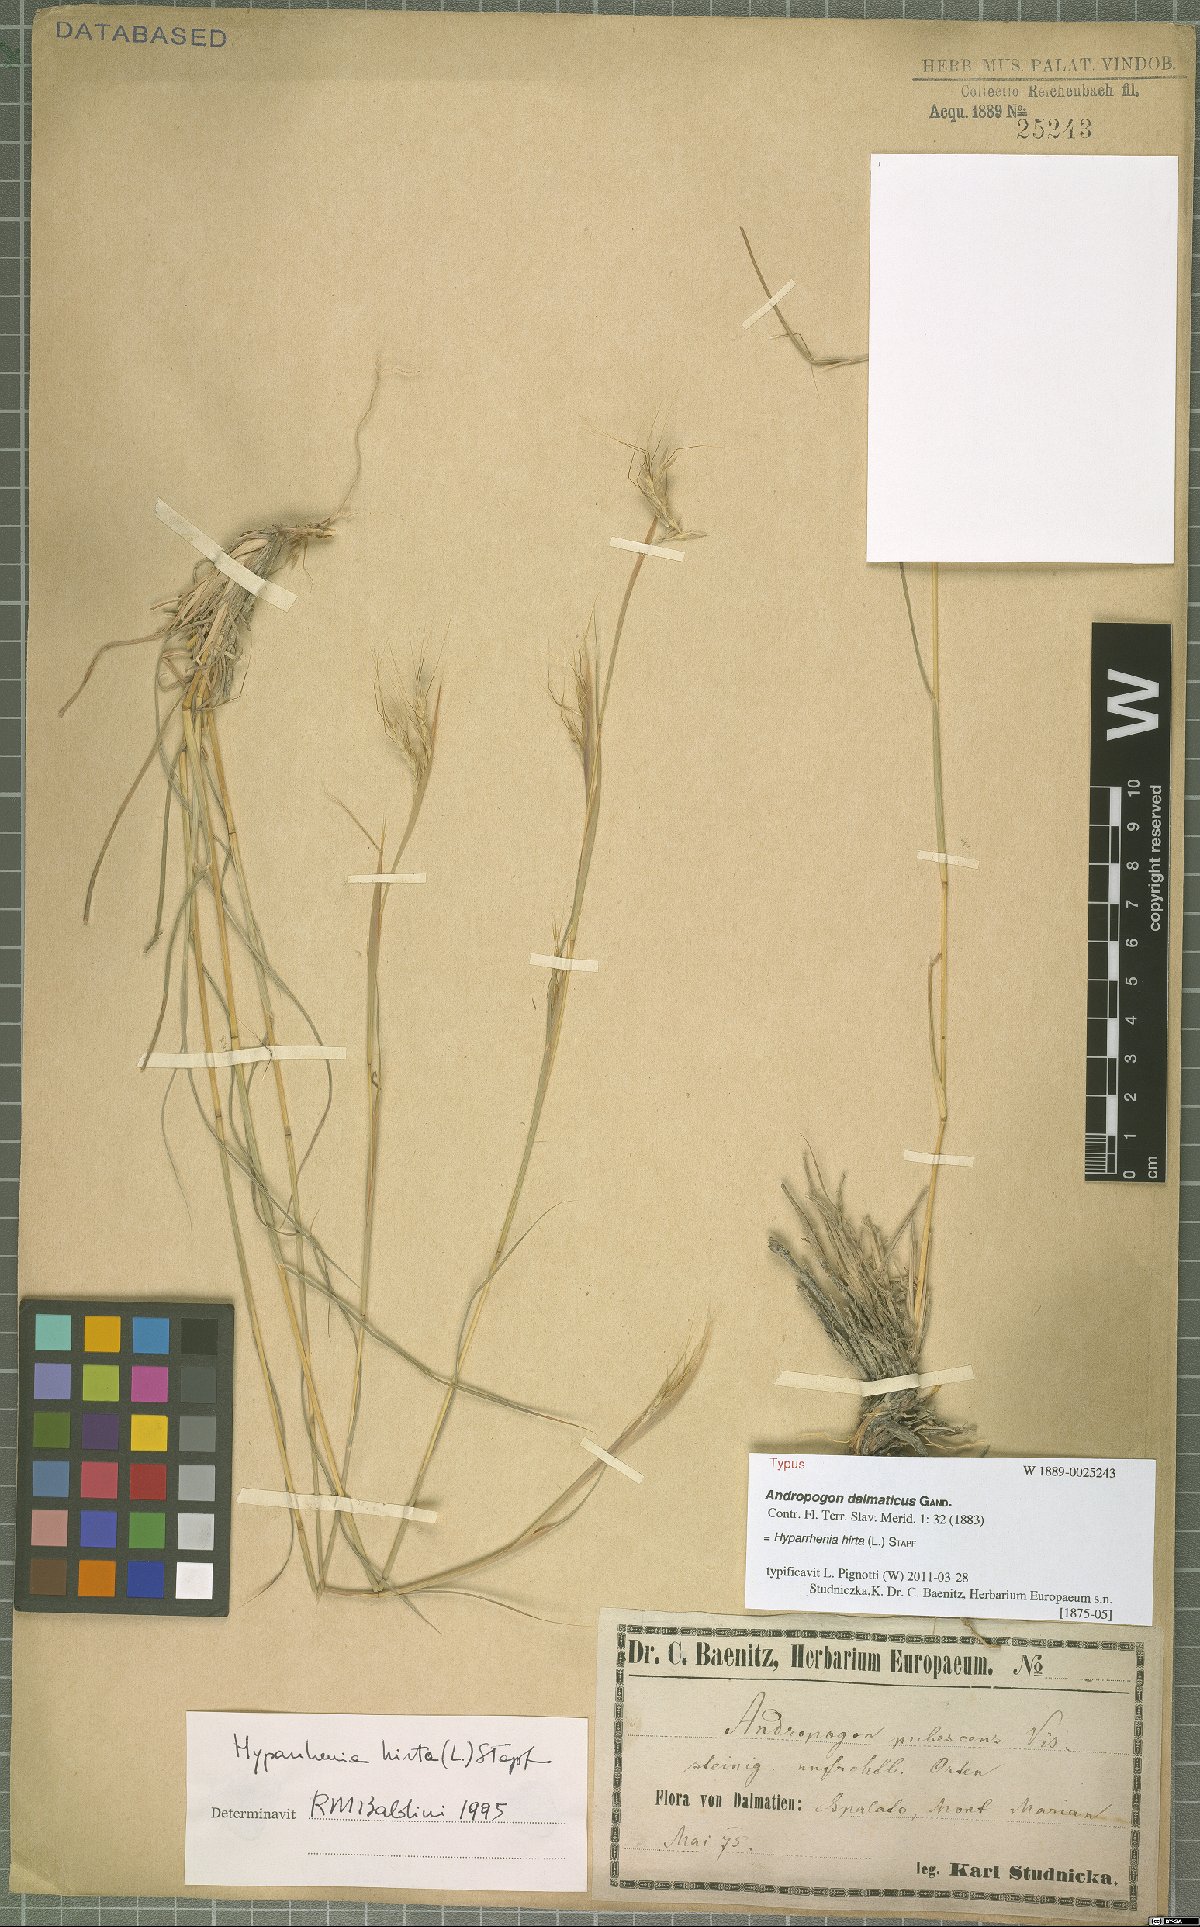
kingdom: Plantae
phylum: Tracheophyta
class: Liliopsida
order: Poales
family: Poaceae
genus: Hyparrhenia
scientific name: Hyparrhenia hirta
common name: Thatching grass
